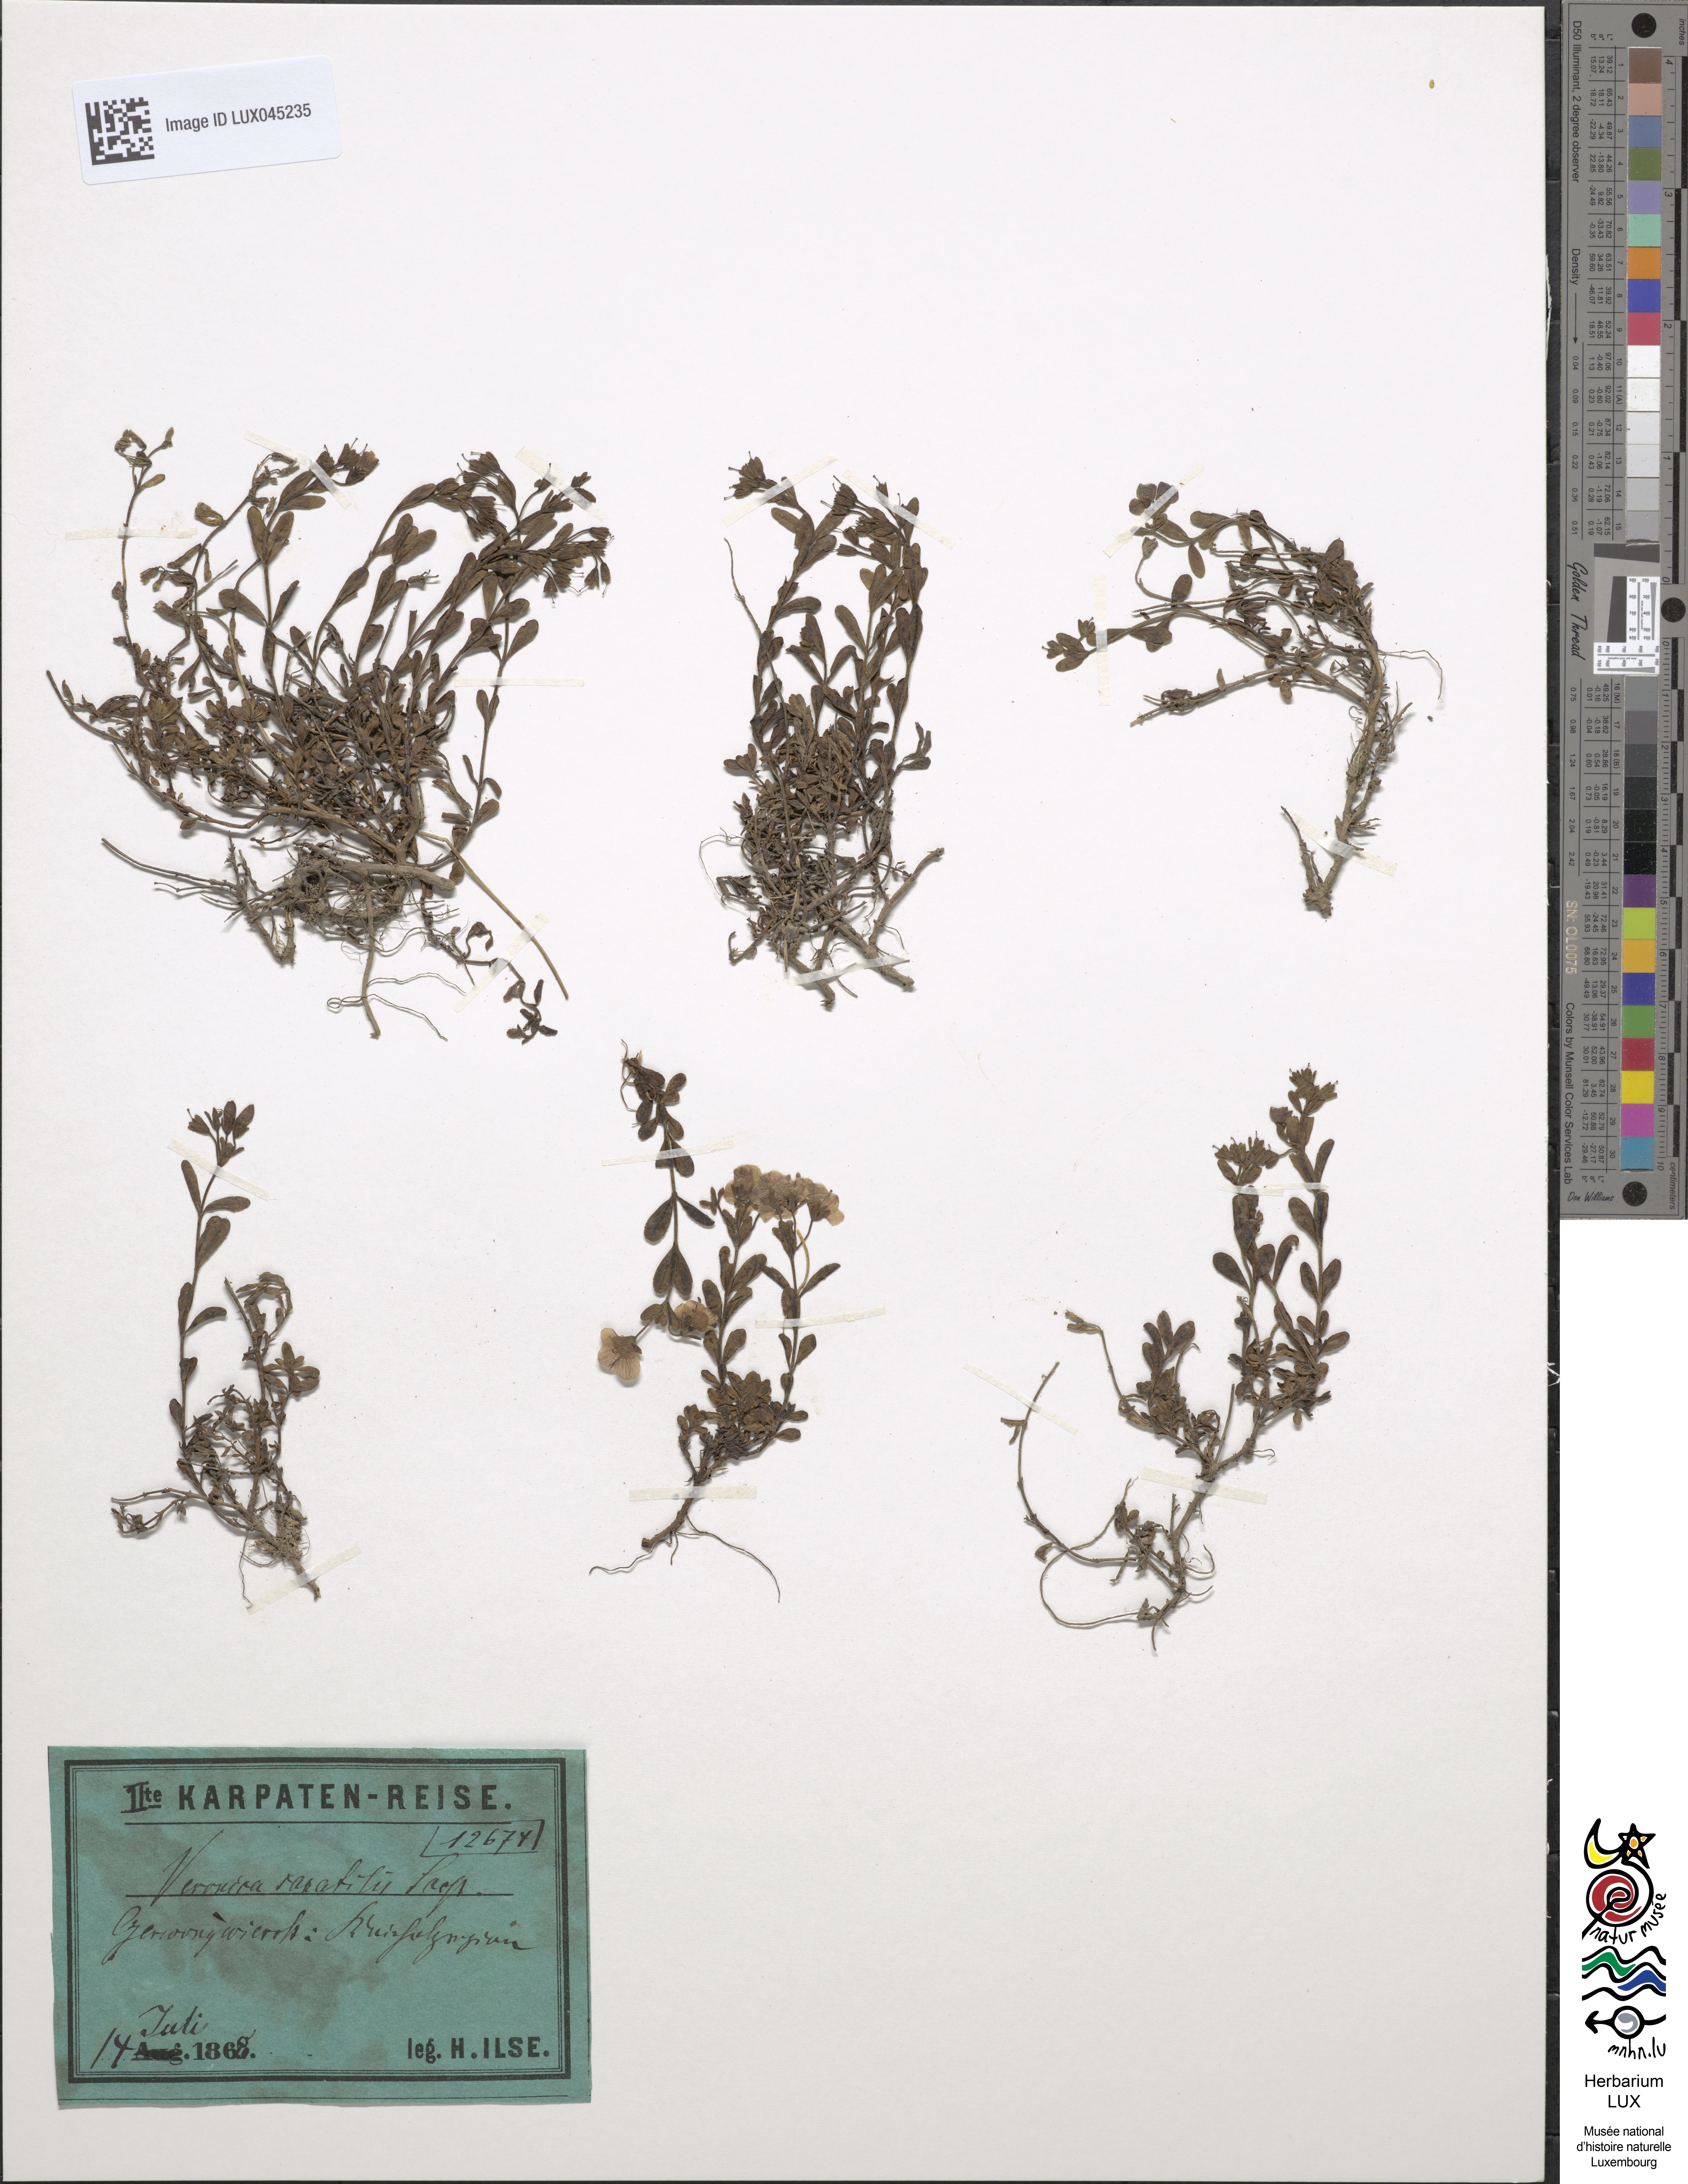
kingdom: Plantae
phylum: Tracheophyta
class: Magnoliopsida
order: Lamiales
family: Plantaginaceae
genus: Veronica
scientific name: Veronica fruticans
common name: Rock speedwell
